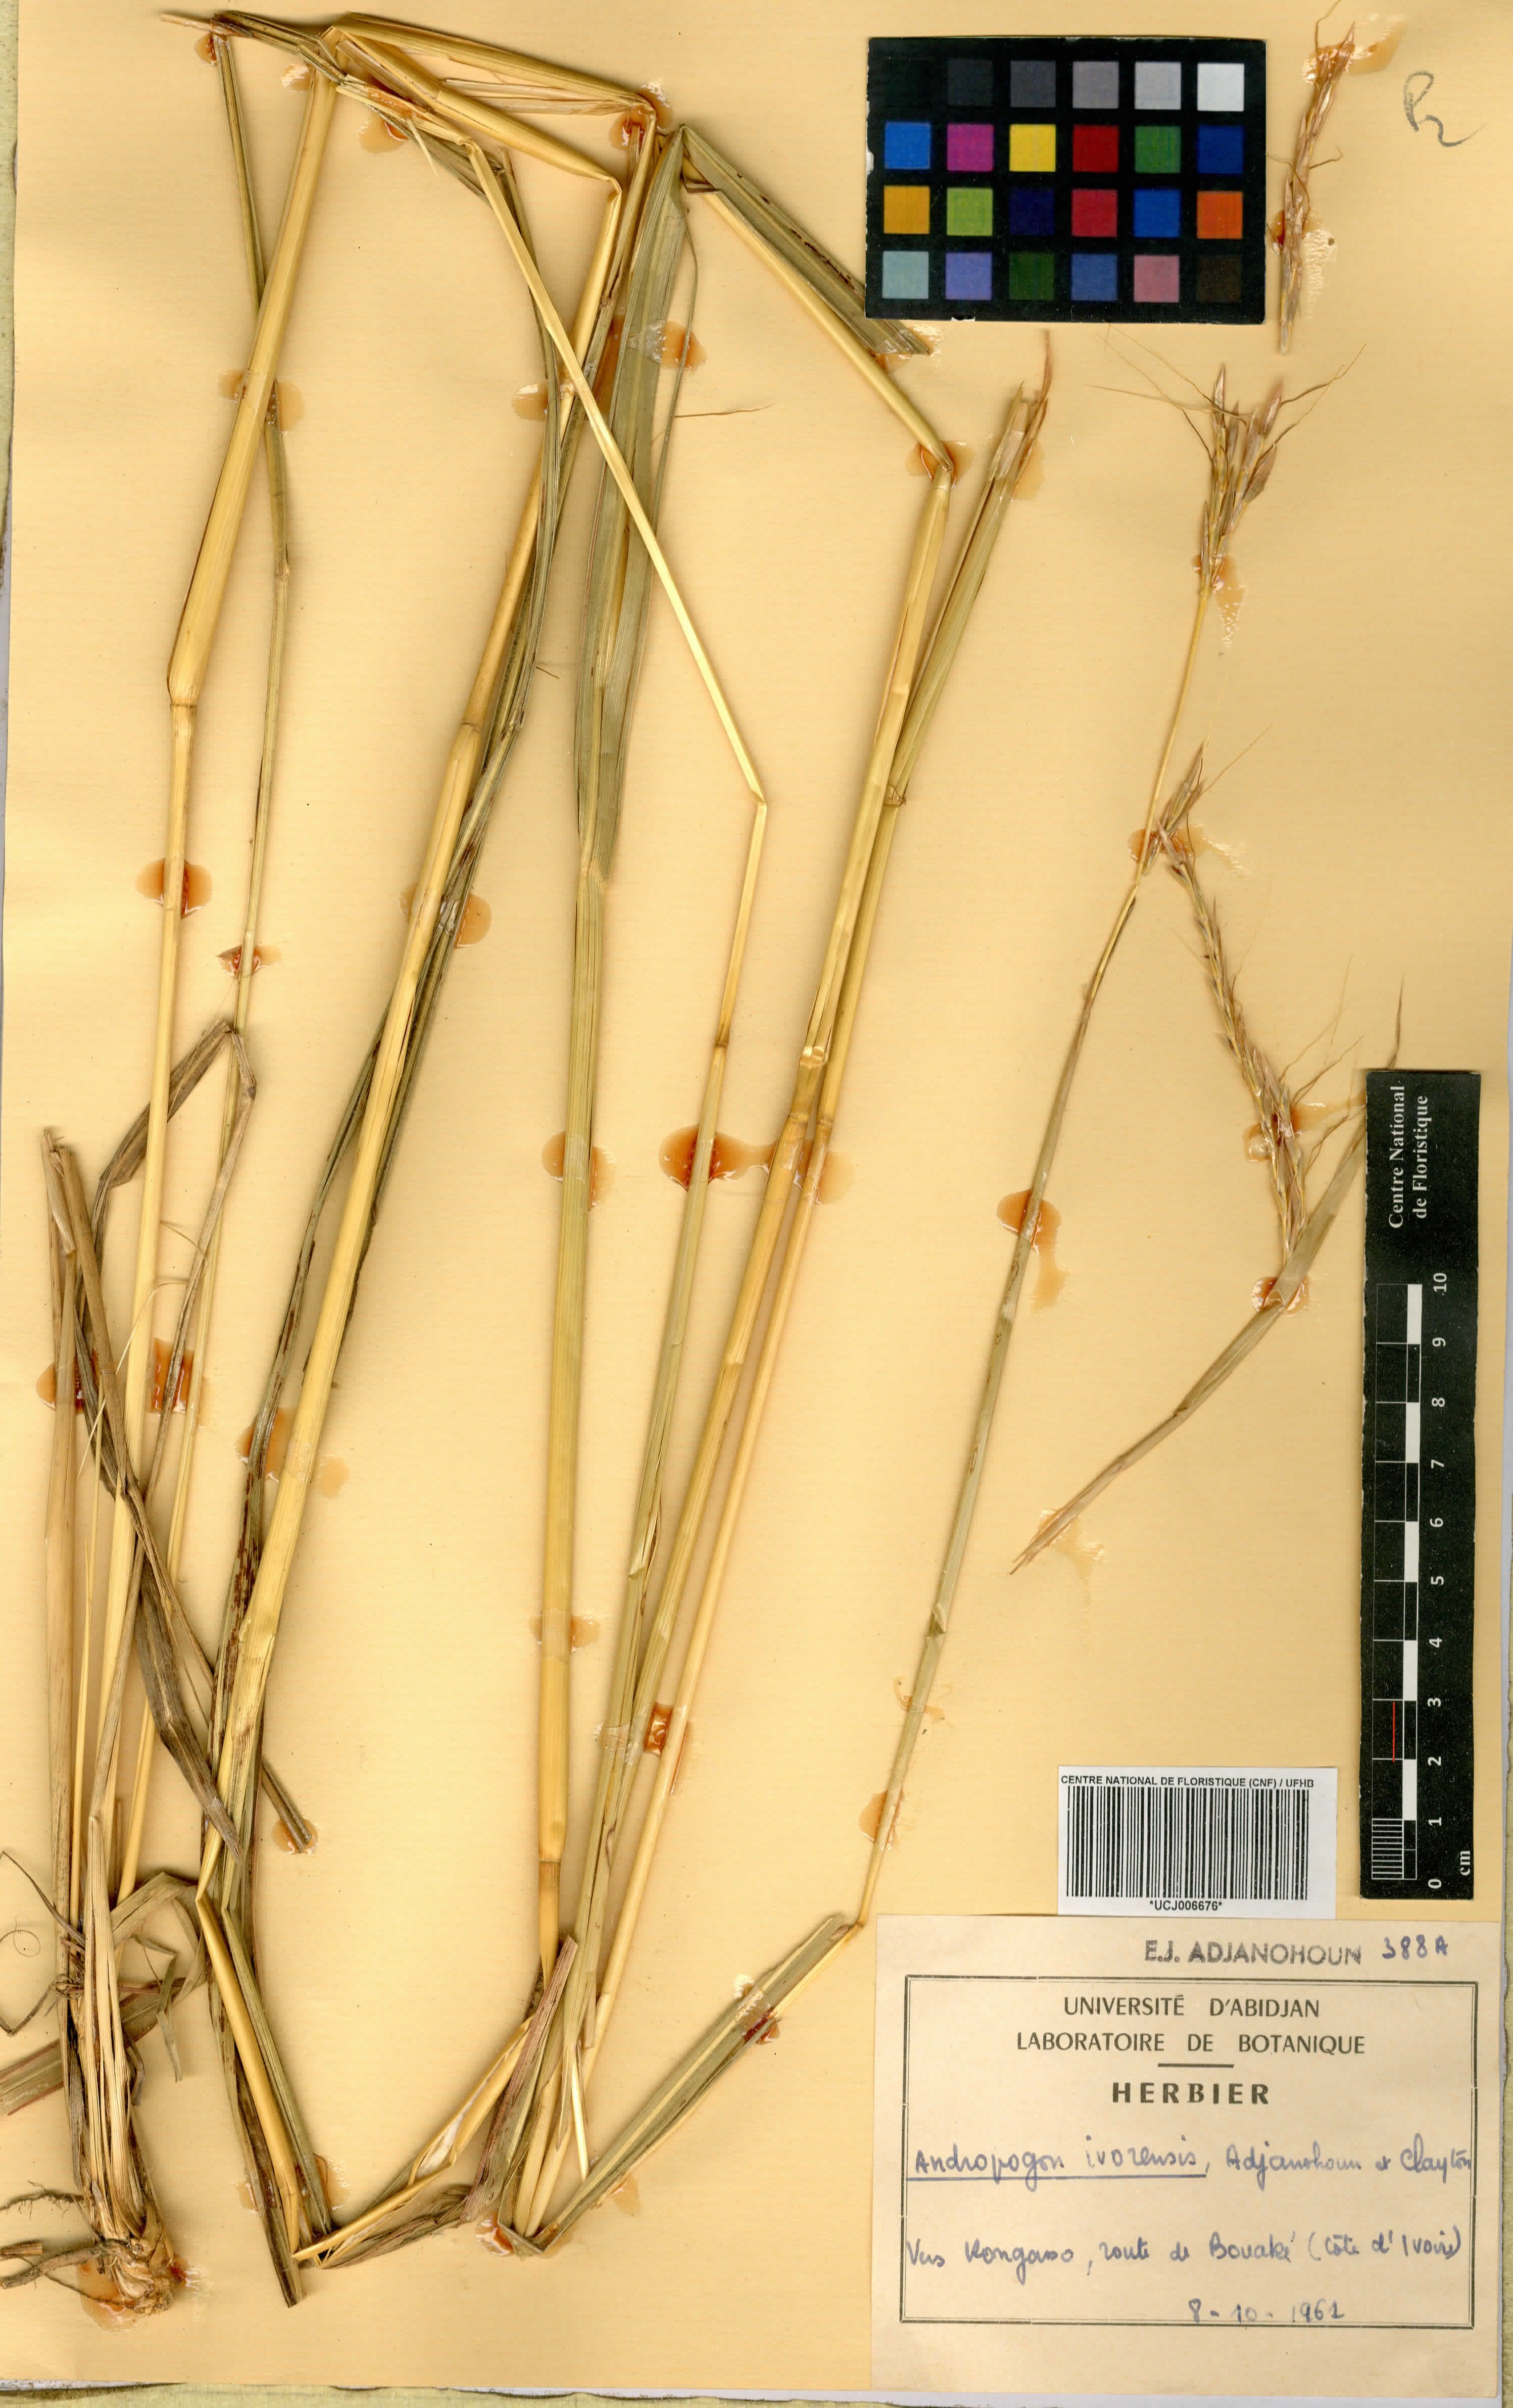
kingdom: Plantae
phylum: Tracheophyta
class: Liliopsida
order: Poales
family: Poaceae
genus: Andropogon
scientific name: Andropogon ivorensis
